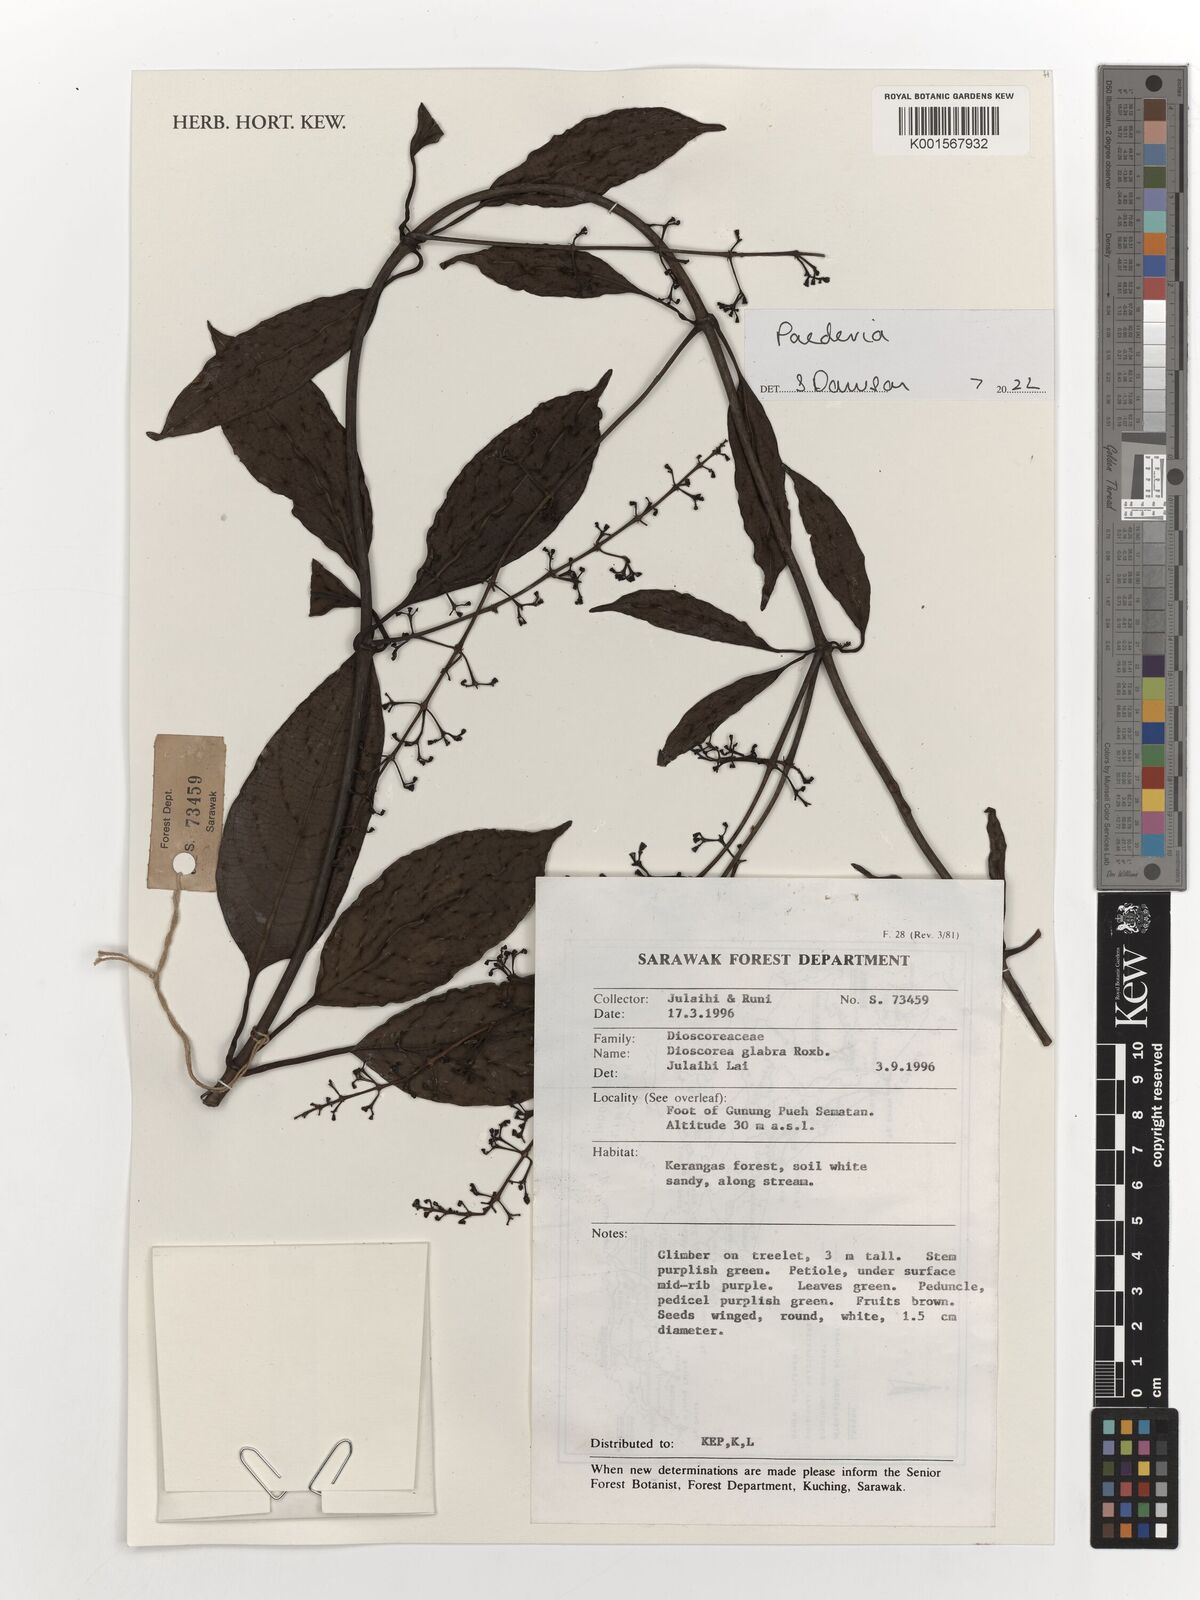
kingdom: Plantae
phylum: Tracheophyta
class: Liliopsida
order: Dioscoreales
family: Dioscoreaceae
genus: Dioscorea
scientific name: Dioscorea glabra
